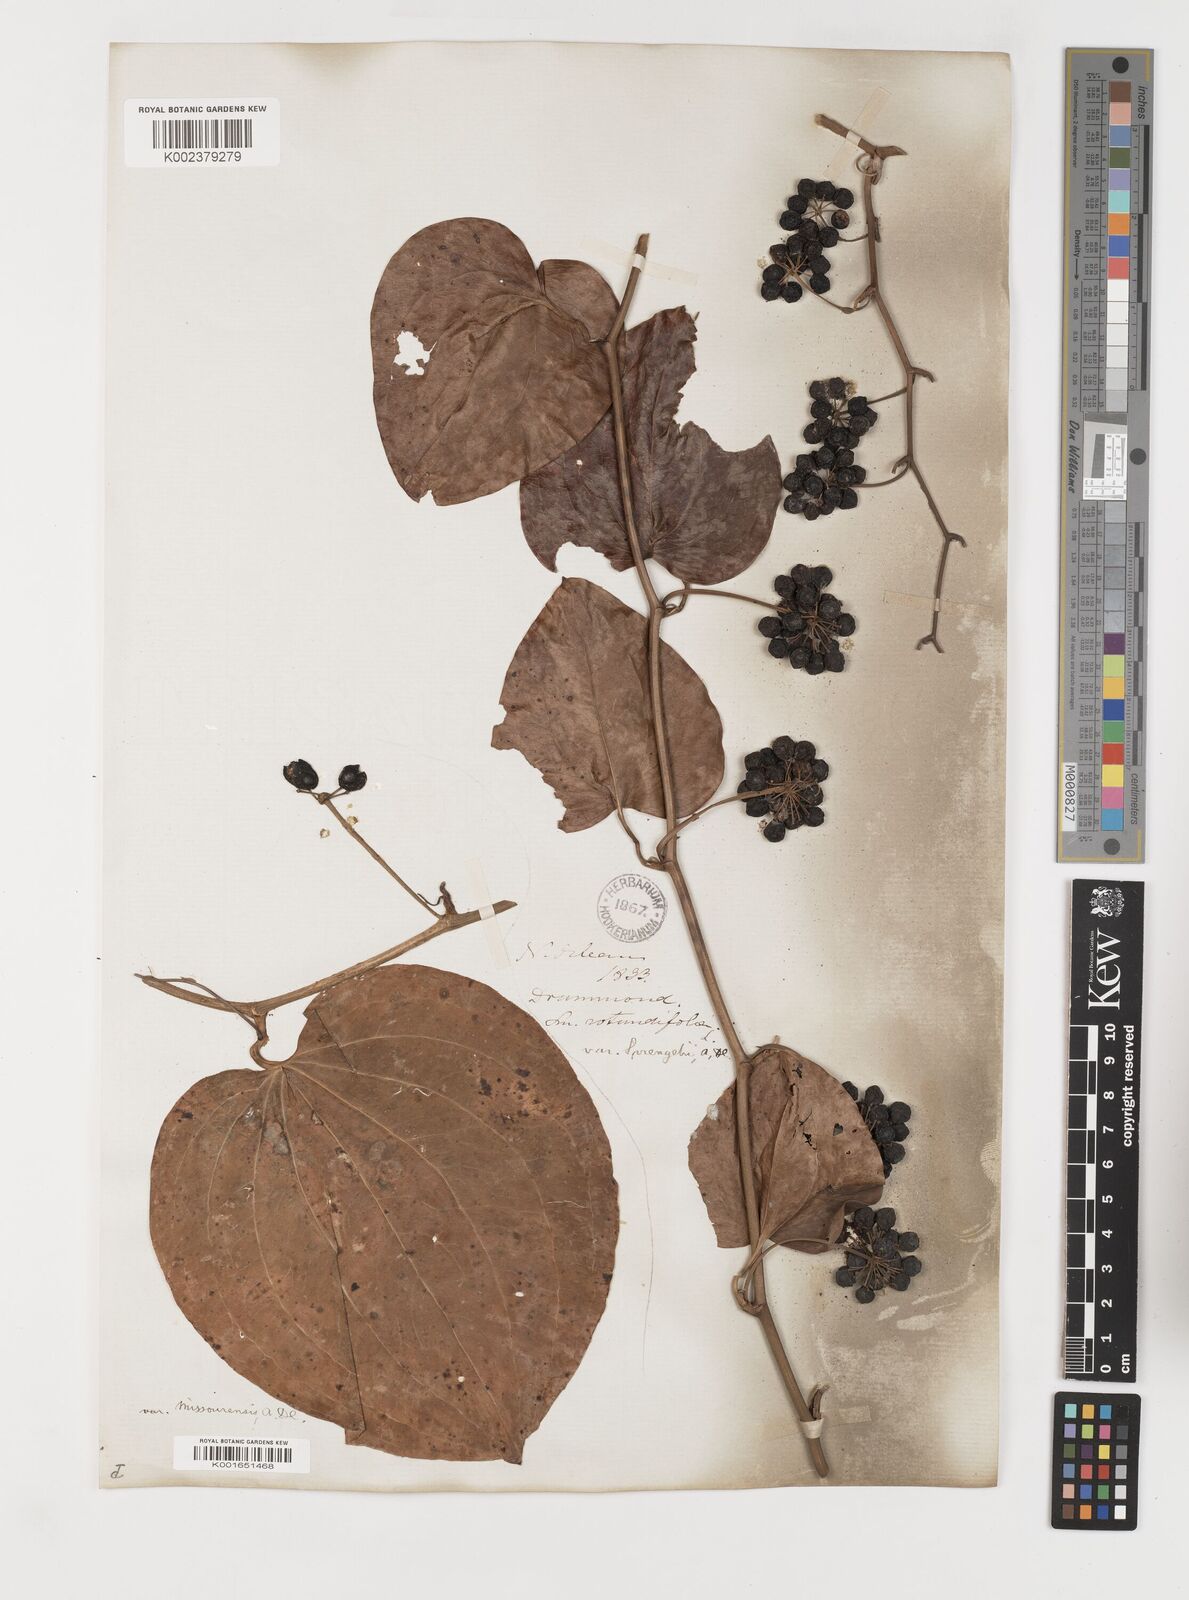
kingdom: Plantae
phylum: Tracheophyta
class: Liliopsida
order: Liliales
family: Smilacaceae
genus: Smilax
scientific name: Smilax rotundifolia
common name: Bullbriar
